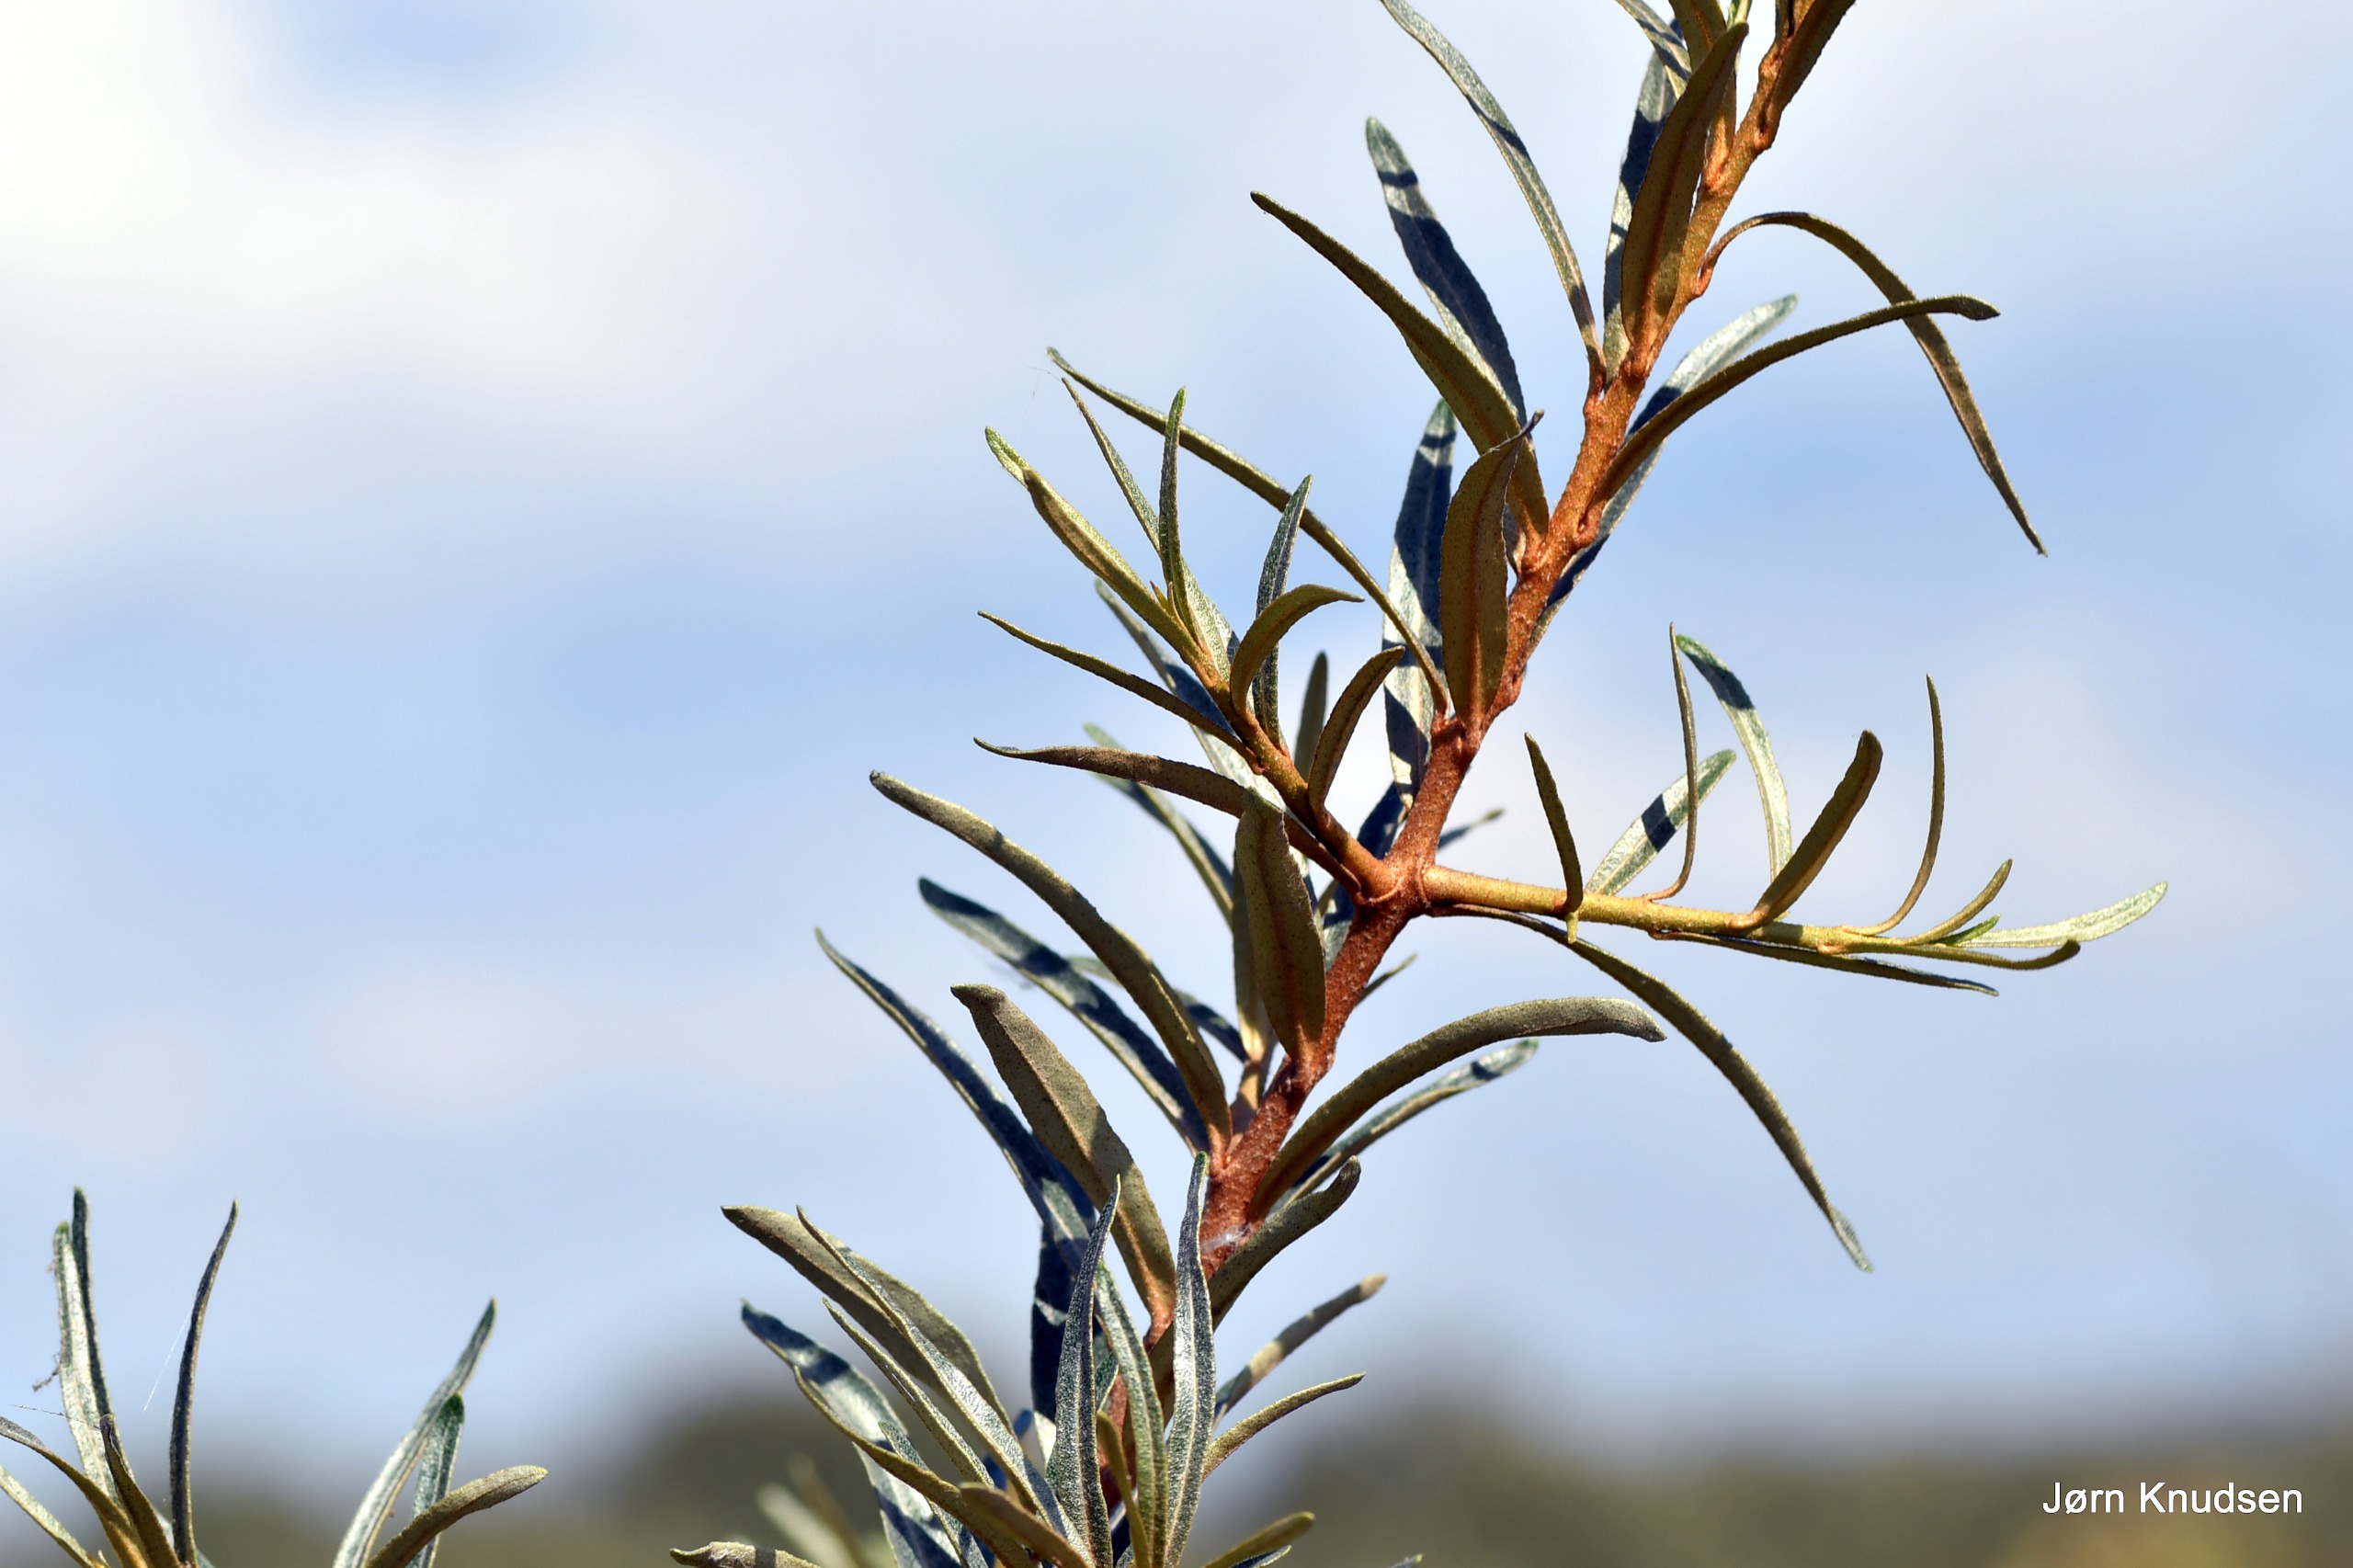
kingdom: Plantae
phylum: Tracheophyta
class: Magnoliopsida
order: Rosales
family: Elaeagnaceae
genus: Hippophae
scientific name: Hippophae rhamnoides
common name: Havtorn
